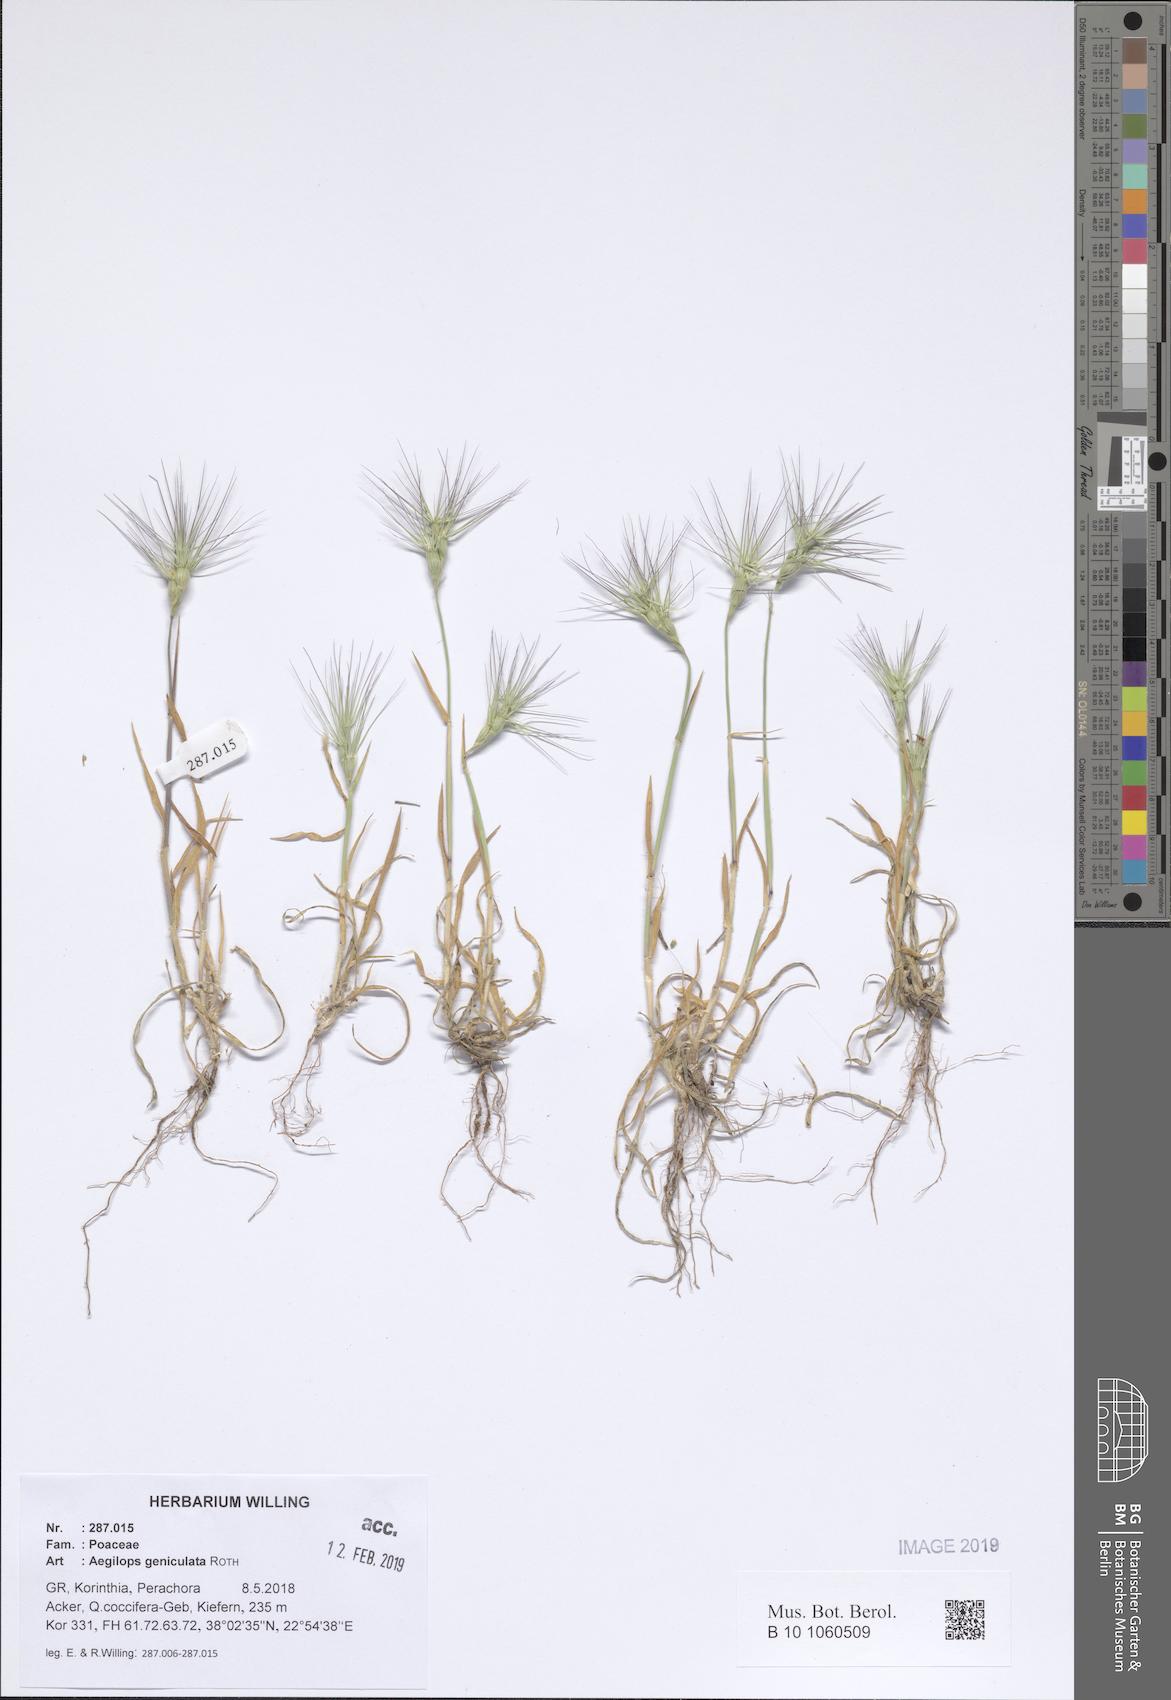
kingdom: Plantae
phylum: Tracheophyta
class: Liliopsida
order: Poales
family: Poaceae
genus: Aegilops
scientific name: Aegilops geniculata
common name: Ovate goat grass
